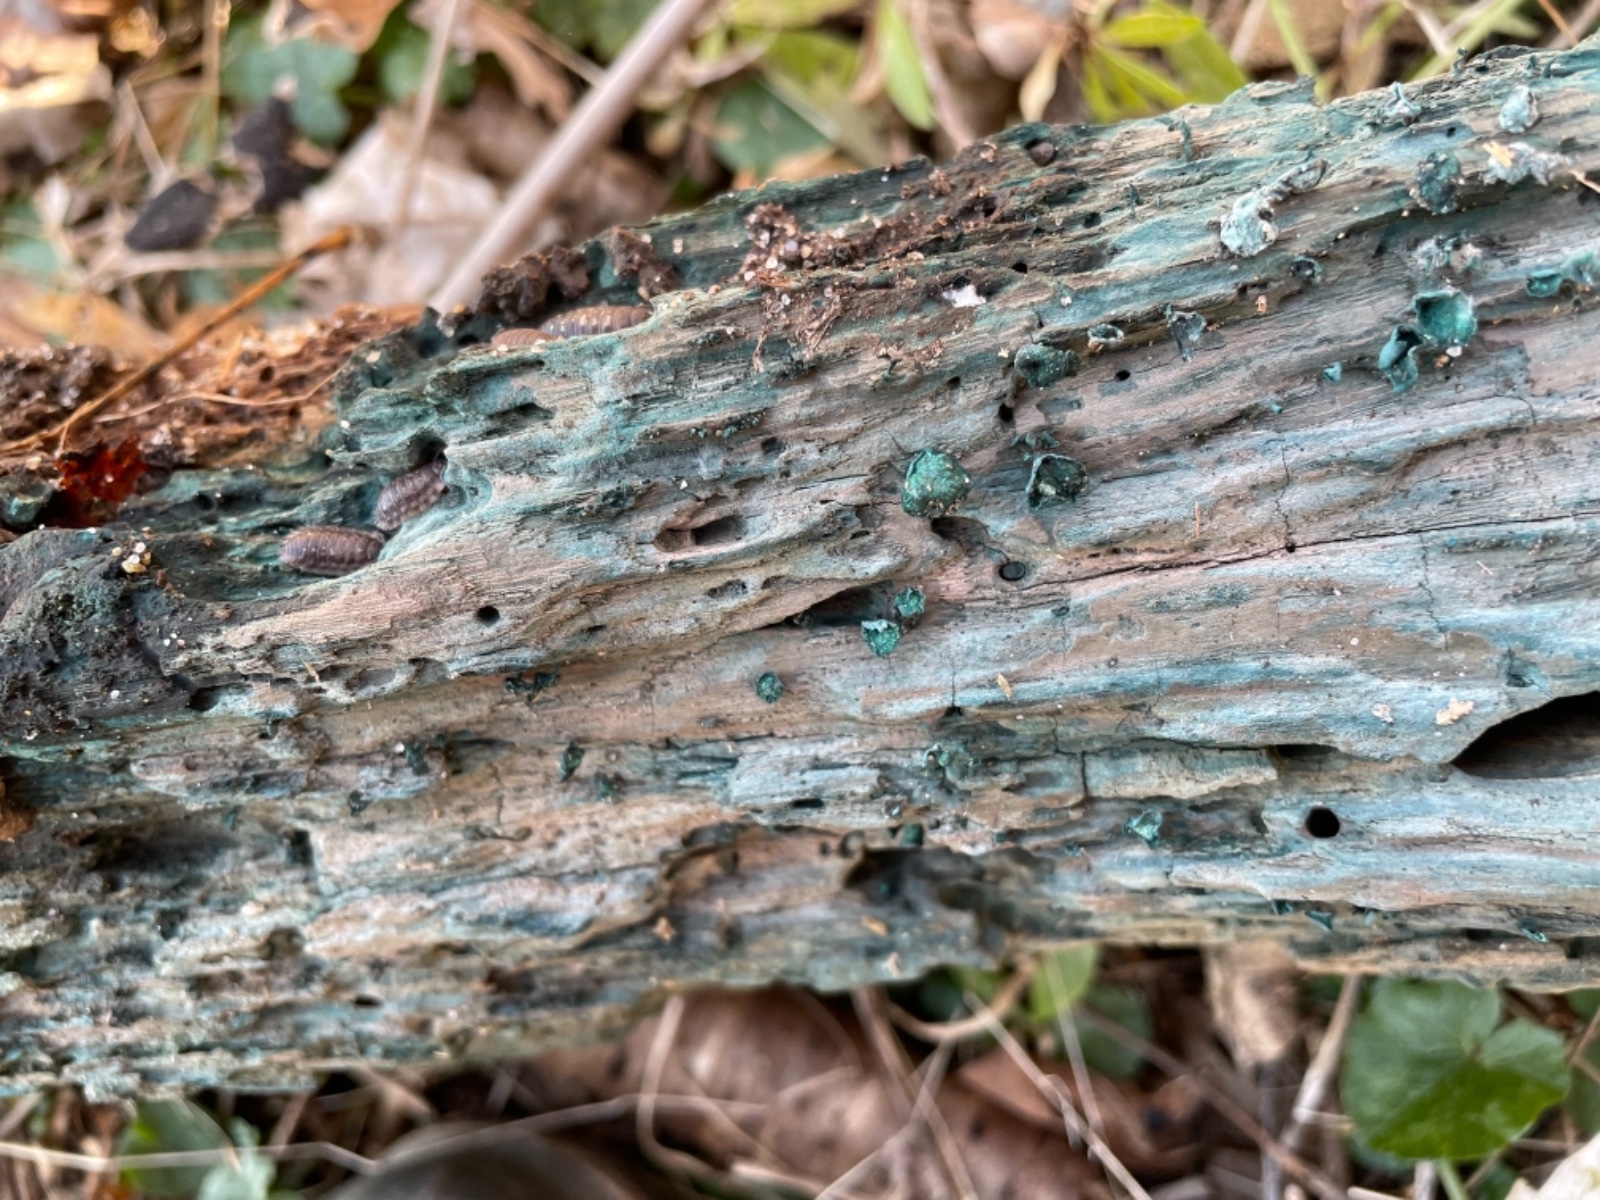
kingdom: Fungi
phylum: Ascomycota
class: Leotiomycetes
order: Helotiales
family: Chlorociboriaceae
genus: Chlorociboria
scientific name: Chlorociboria aeruginascens
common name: almindelig grønskive
